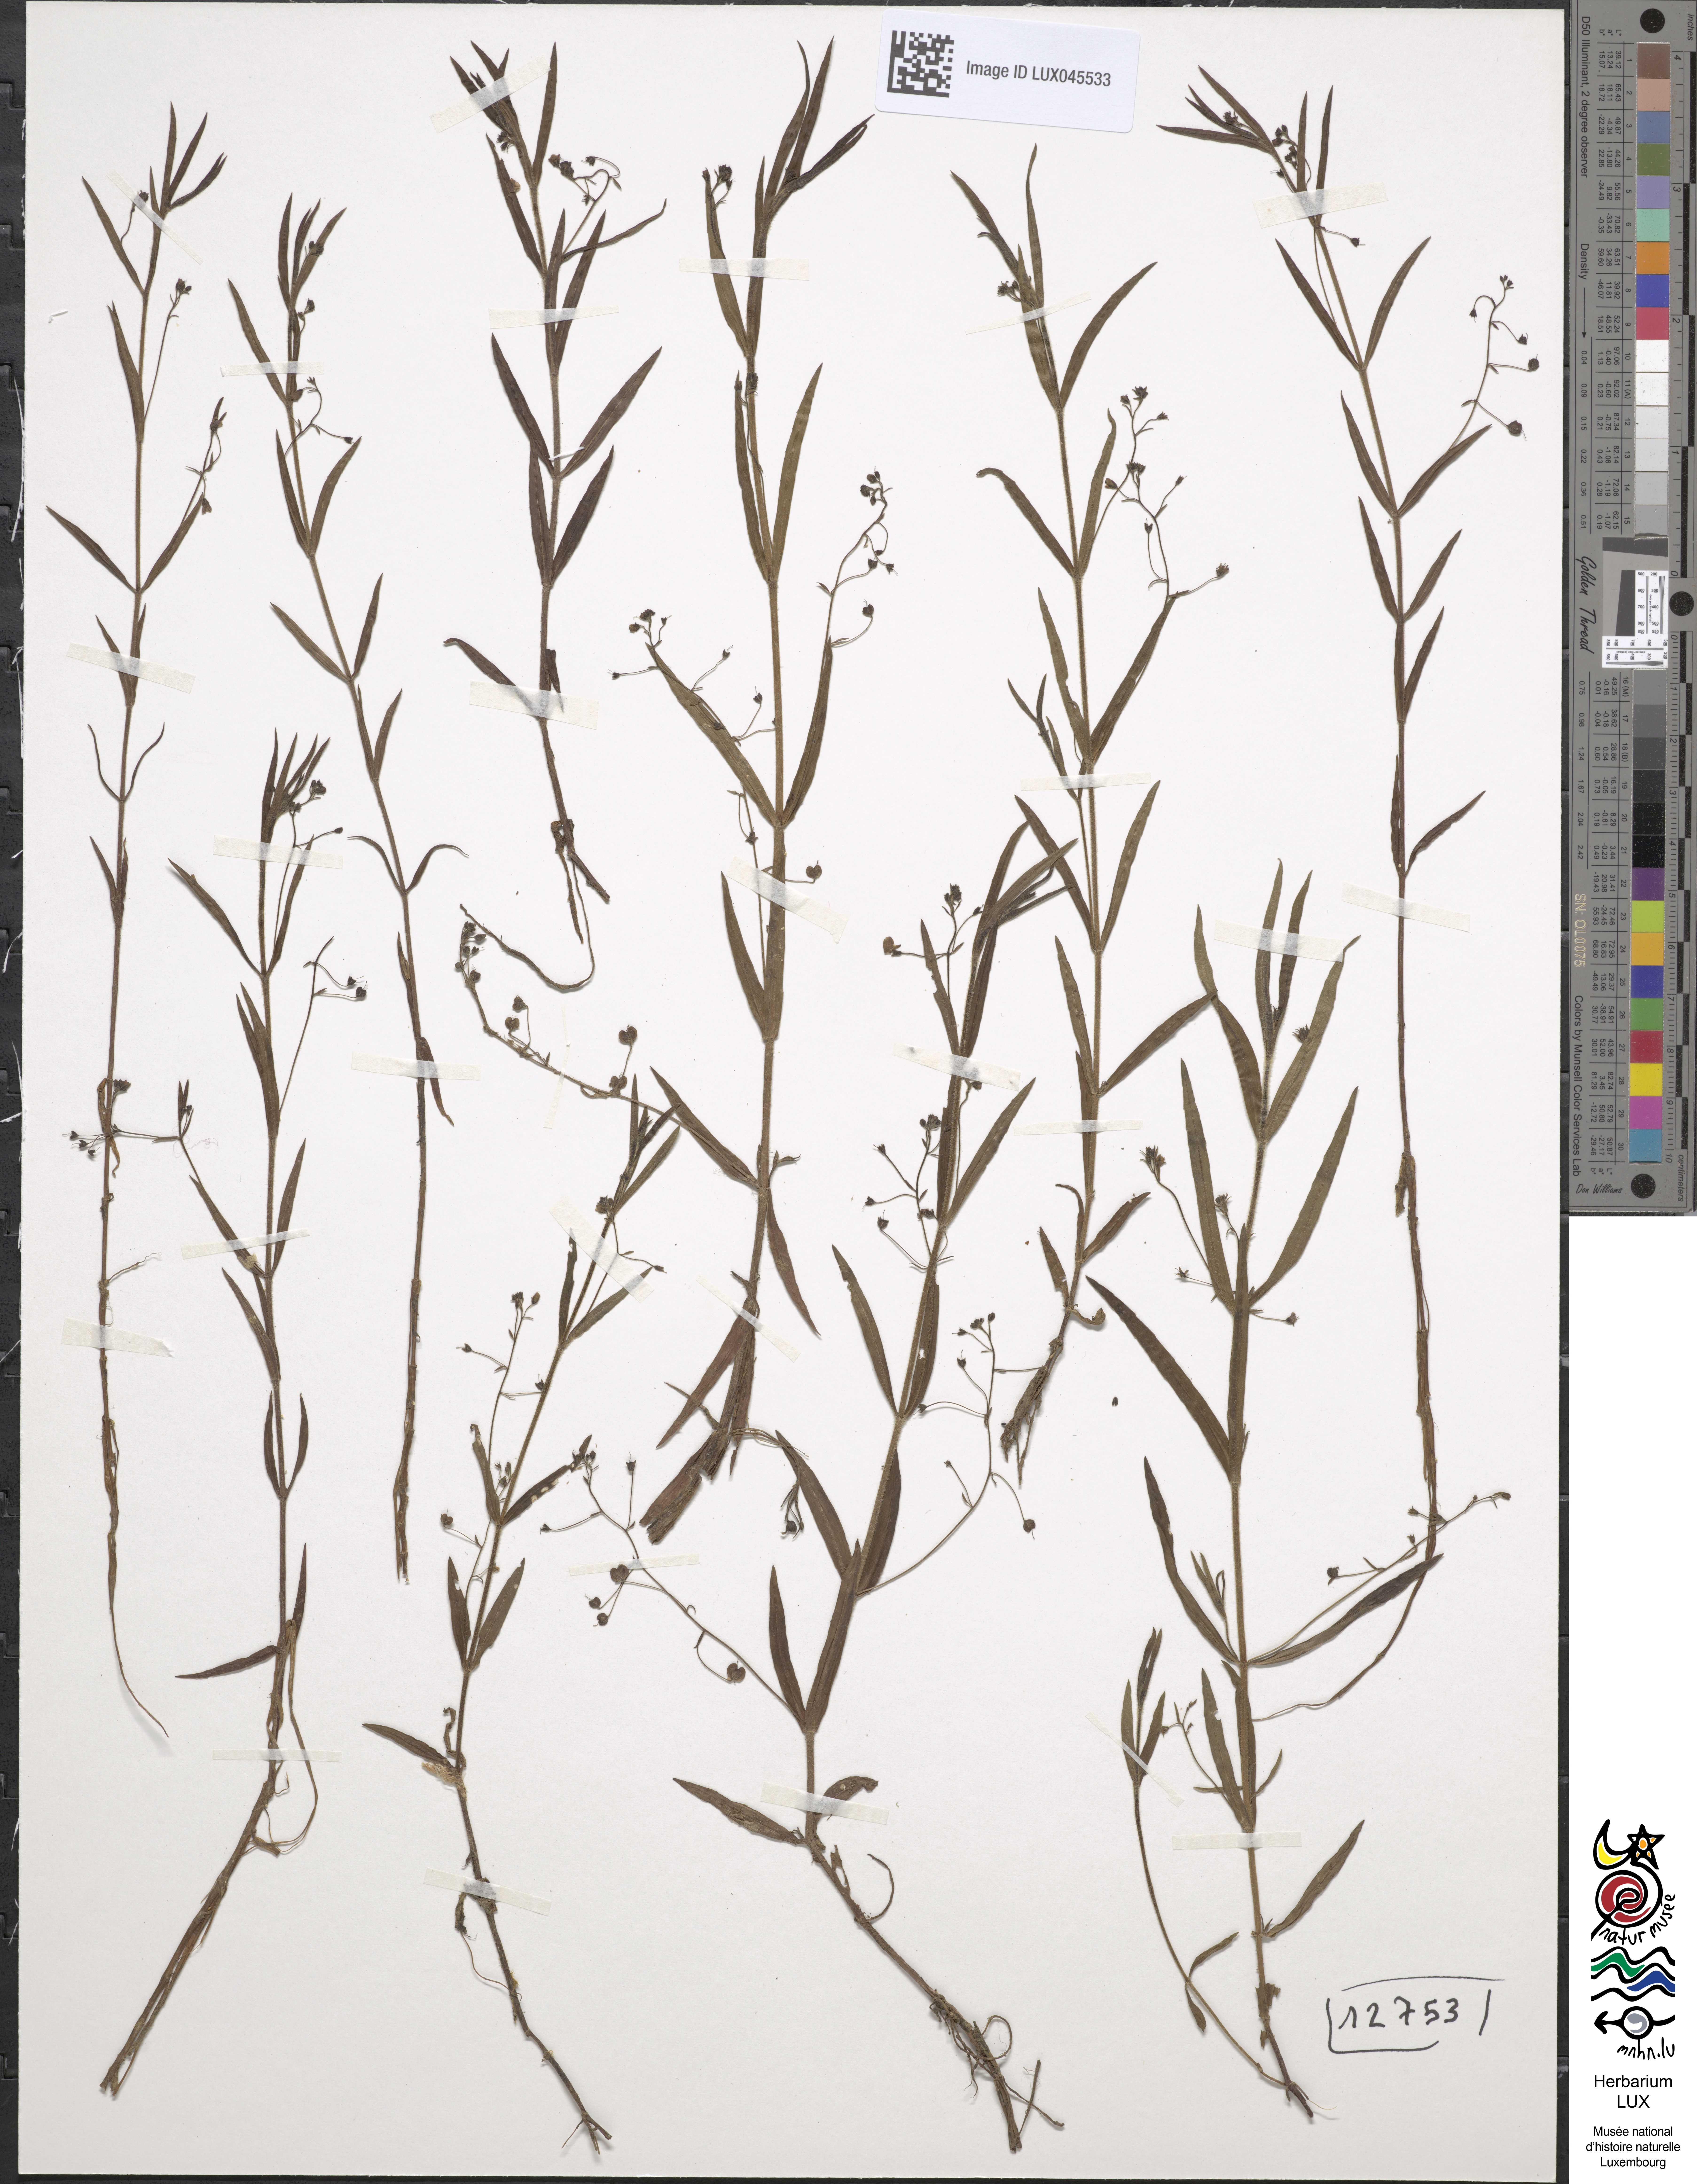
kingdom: Plantae
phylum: Tracheophyta
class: Magnoliopsida
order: Lamiales
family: Plantaginaceae
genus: Veronica
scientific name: Veronica scutellata
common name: Marsh speedwell
